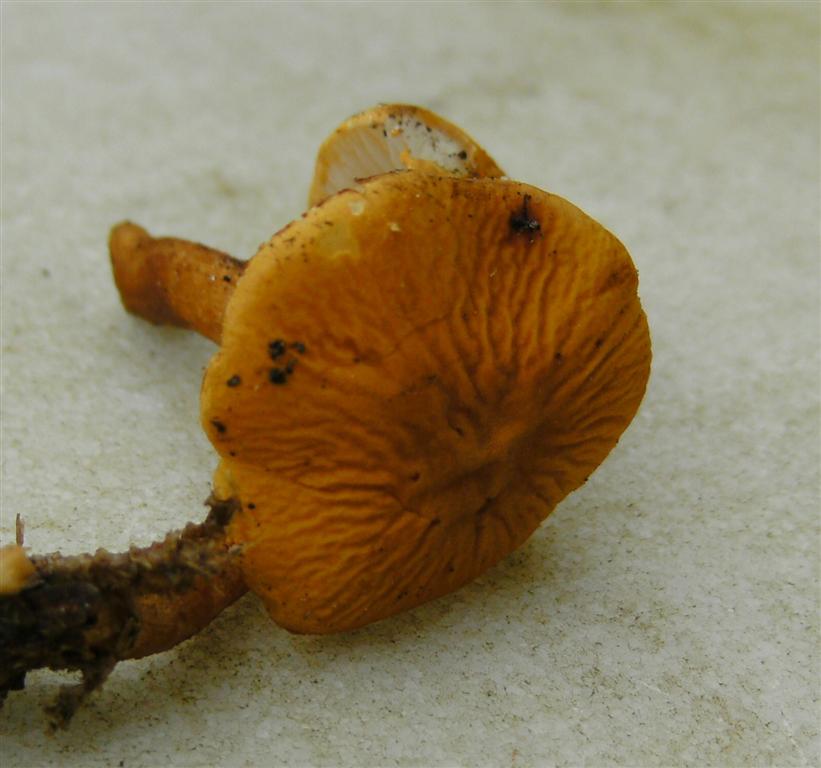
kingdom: Fungi
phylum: Basidiomycota
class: Agaricomycetes
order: Agaricales
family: Tricholomataceae
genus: Cystoderma
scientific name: Cystoderma amianthinum
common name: okkergul grynhat
